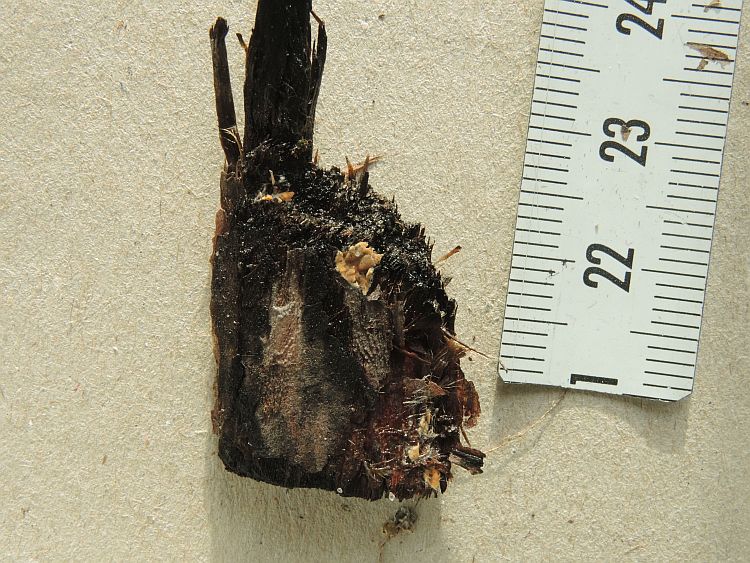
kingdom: Fungi
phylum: Basidiomycota
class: Agaricomycetes
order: Corticiales
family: Corticiaceae
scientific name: Corticiaceae
